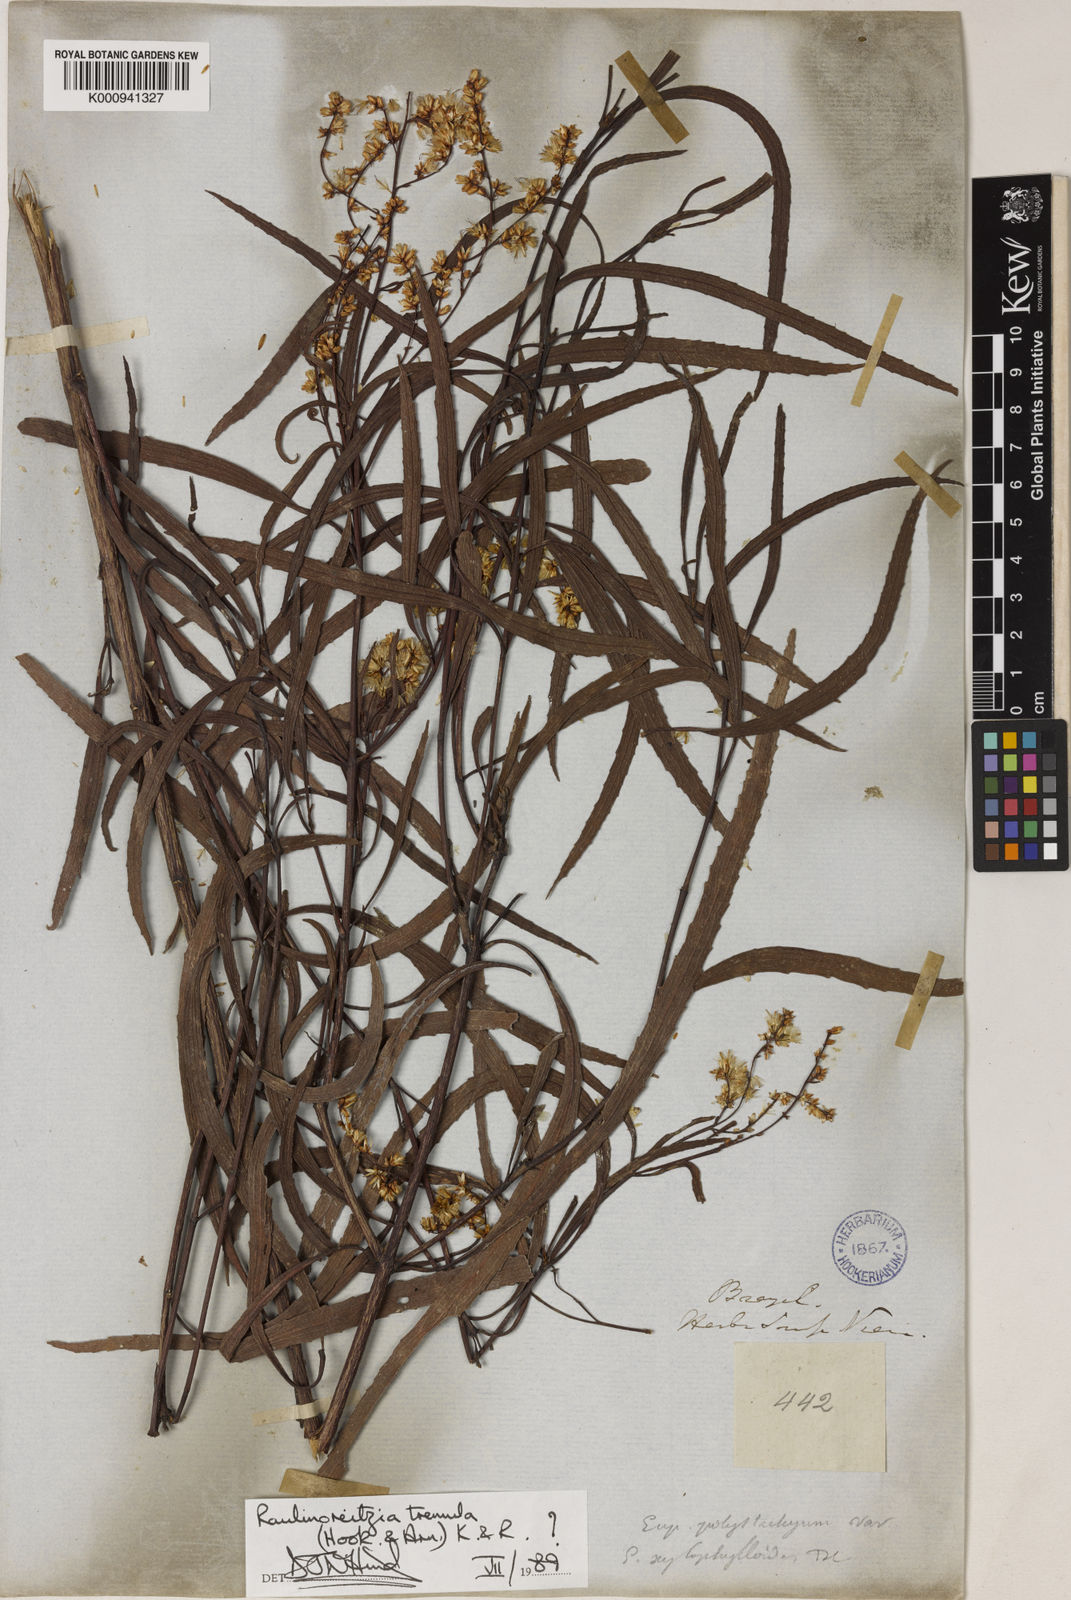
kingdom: Plantae
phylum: Tracheophyta
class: Magnoliopsida
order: Asterales
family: Asteraceae
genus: Raulinoreitzia
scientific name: Raulinoreitzia tremula
